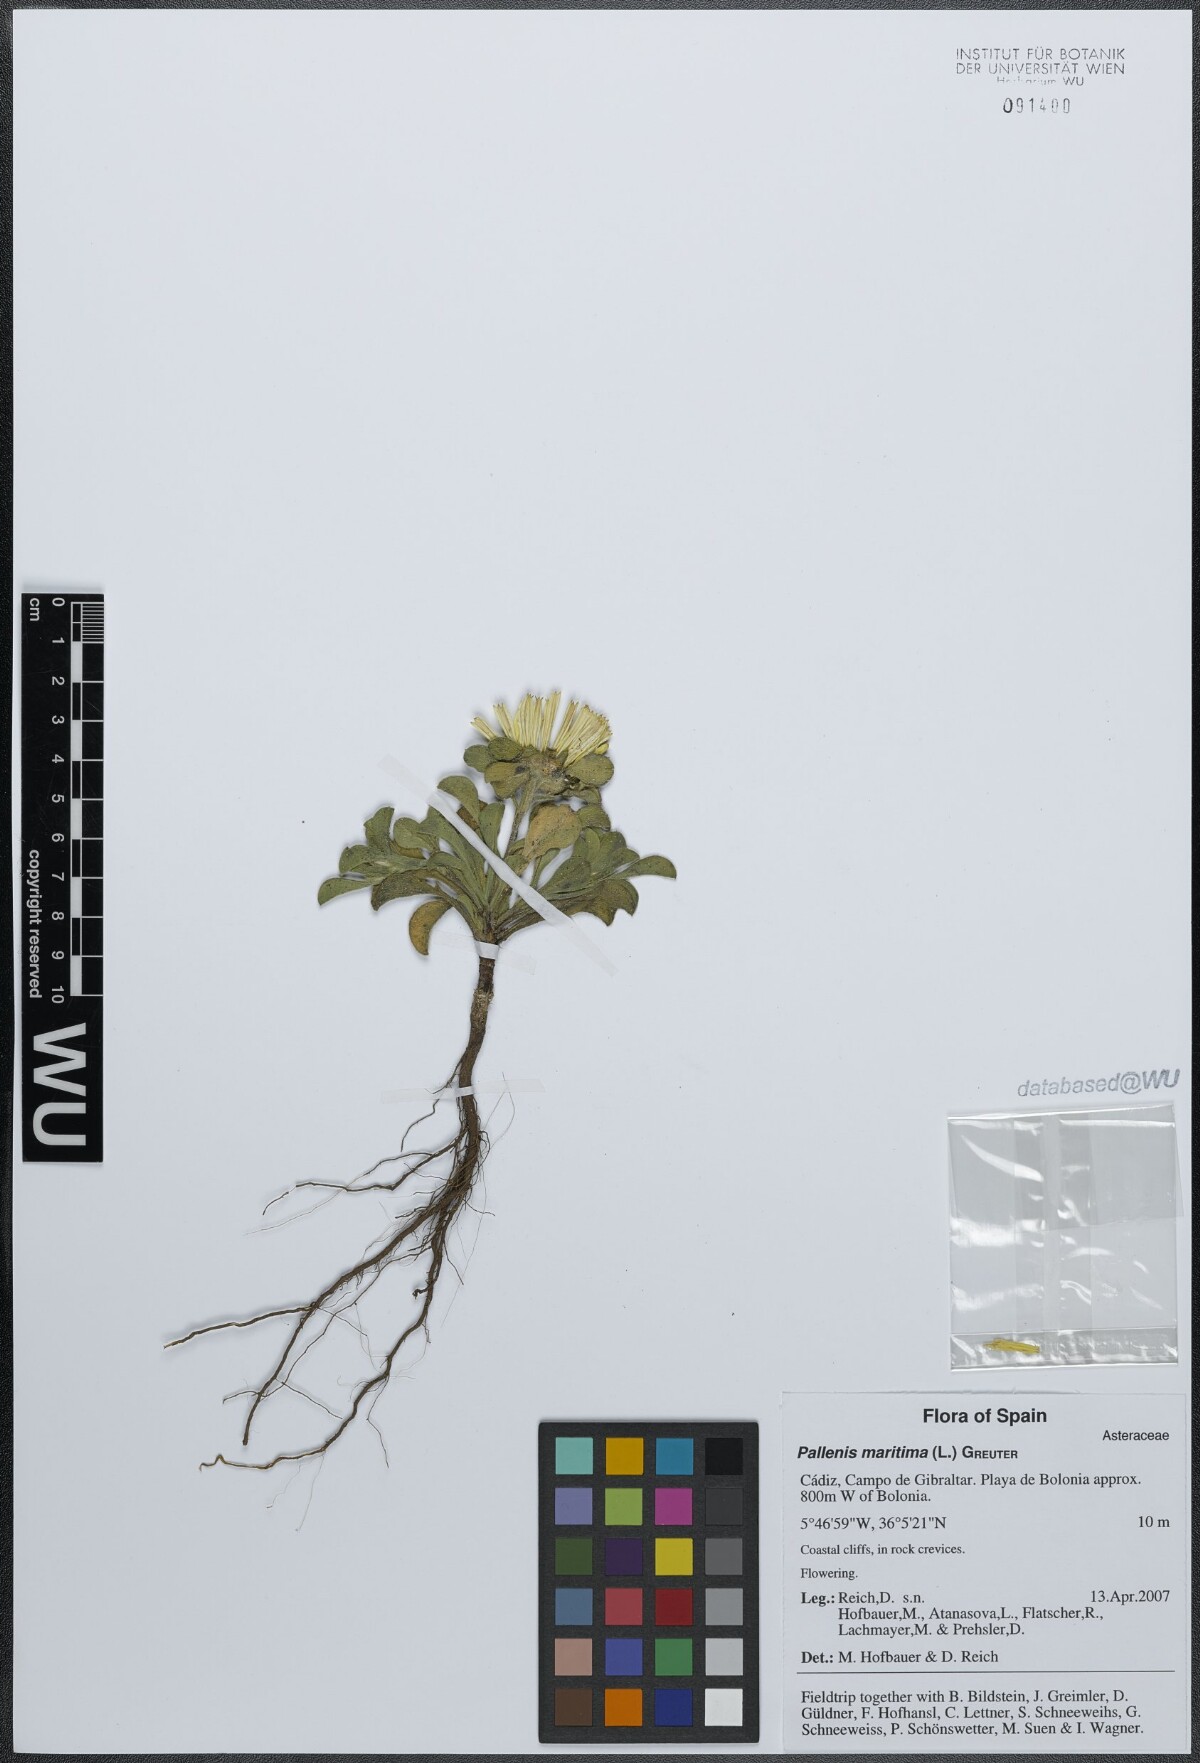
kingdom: Plantae
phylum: Tracheophyta
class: Magnoliopsida
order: Asterales
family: Asteraceae
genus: Pallenis
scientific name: Pallenis maritima
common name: Golden coin daisy
